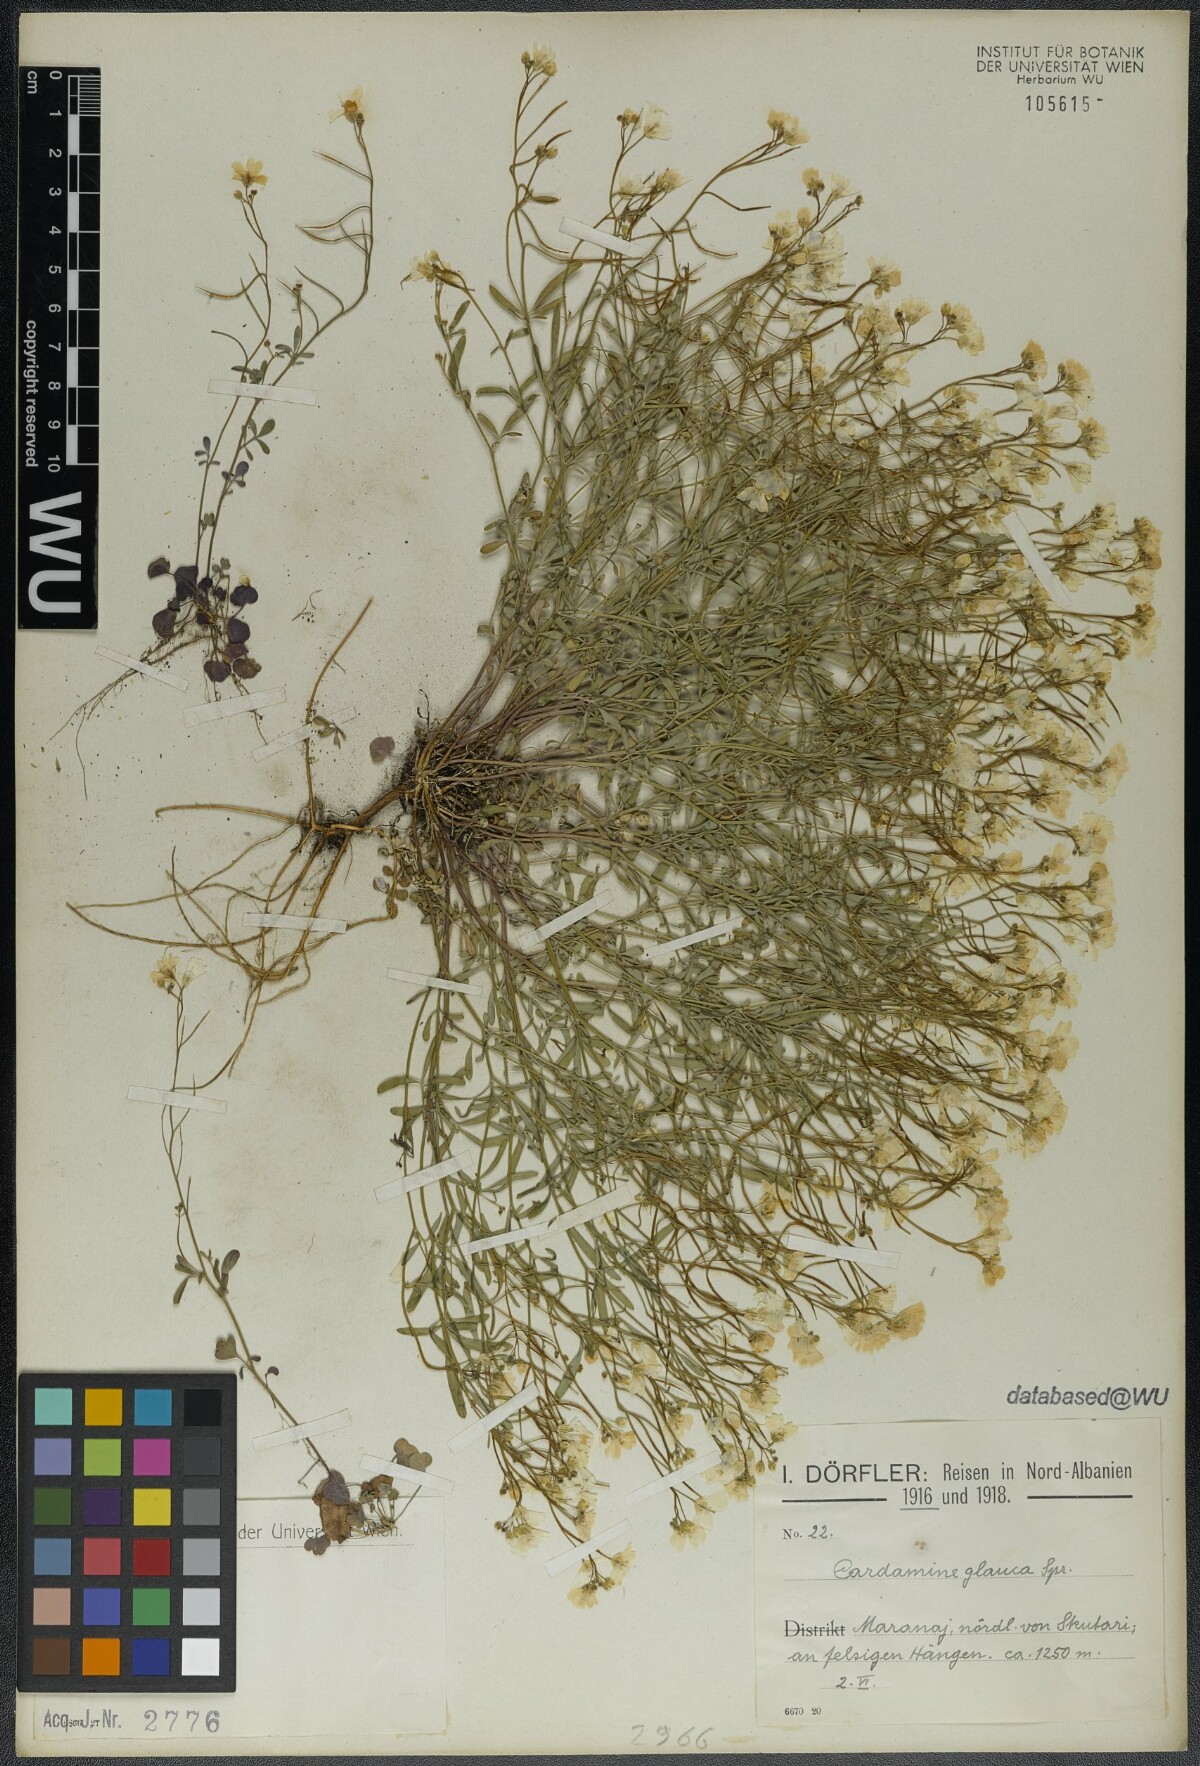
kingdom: Plantae
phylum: Tracheophyta
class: Magnoliopsida
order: Brassicales
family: Brassicaceae
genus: Cardamine
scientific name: Cardamine glauca
